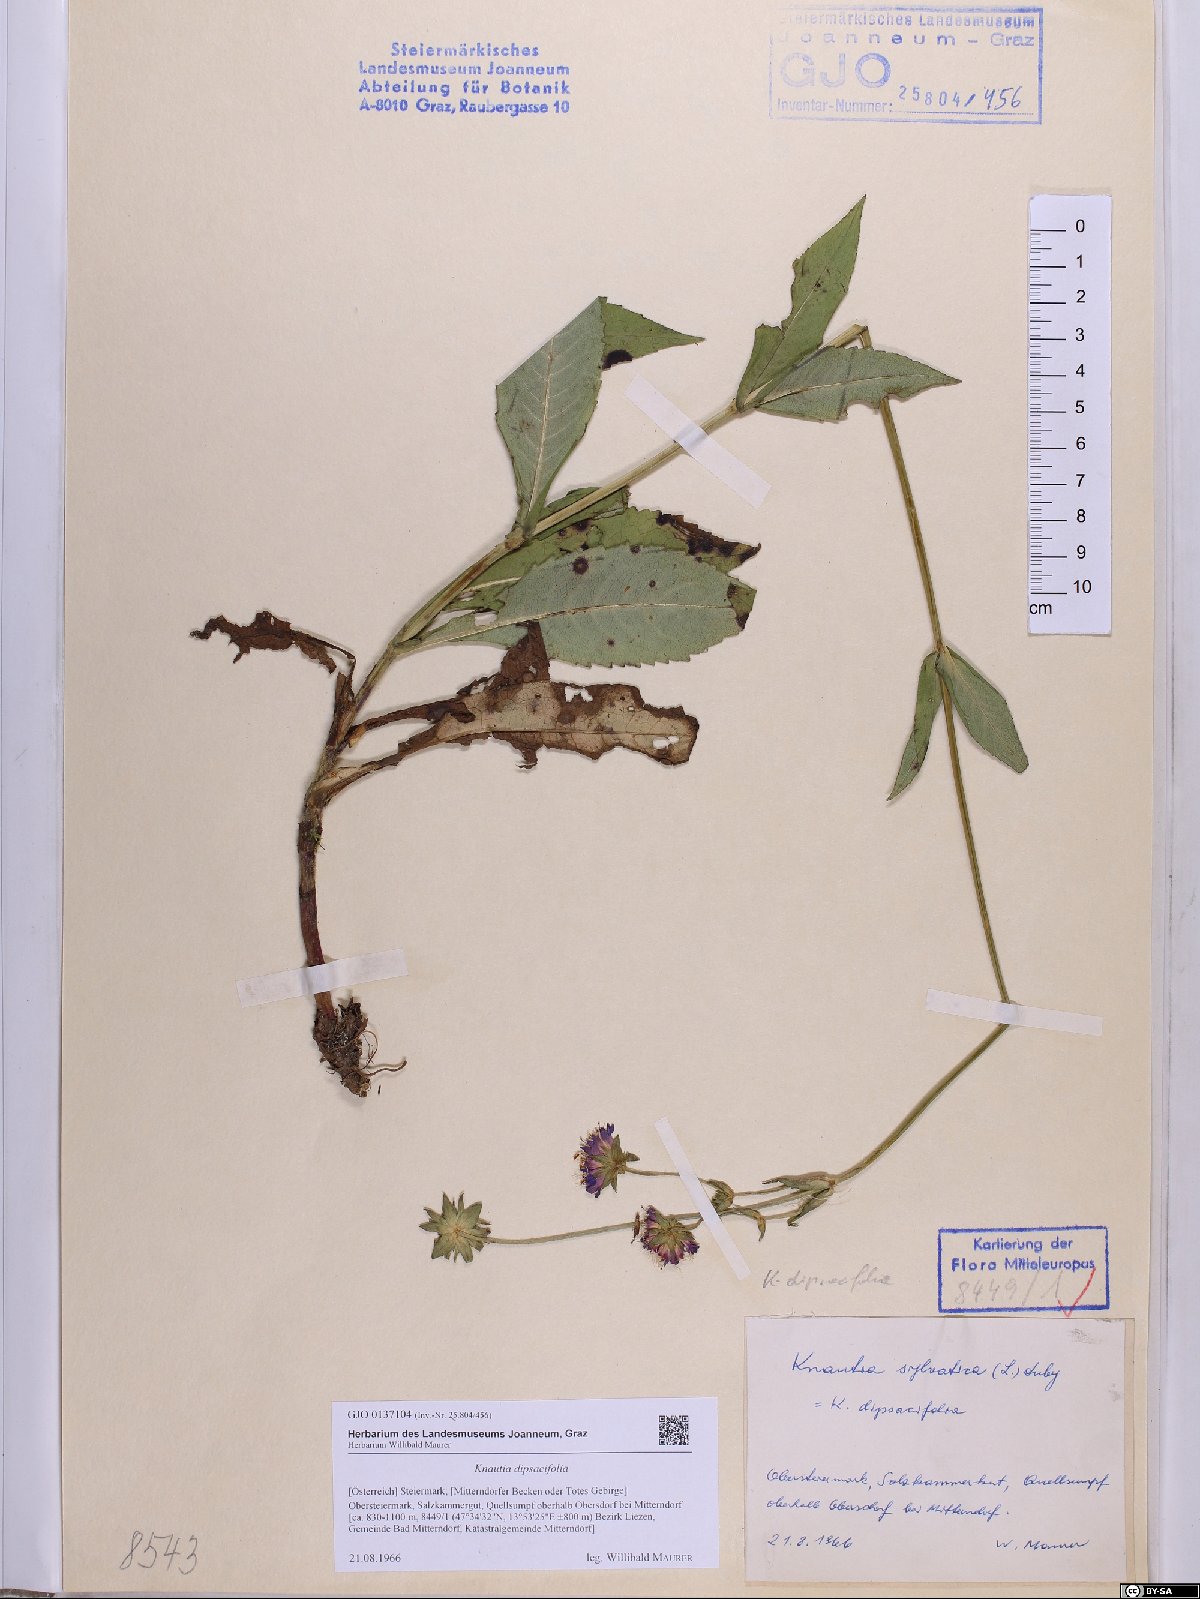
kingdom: Plantae
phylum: Tracheophyta
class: Magnoliopsida
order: Dipsacales
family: Caprifoliaceae
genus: Knautia
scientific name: Knautia dipsacifolia
